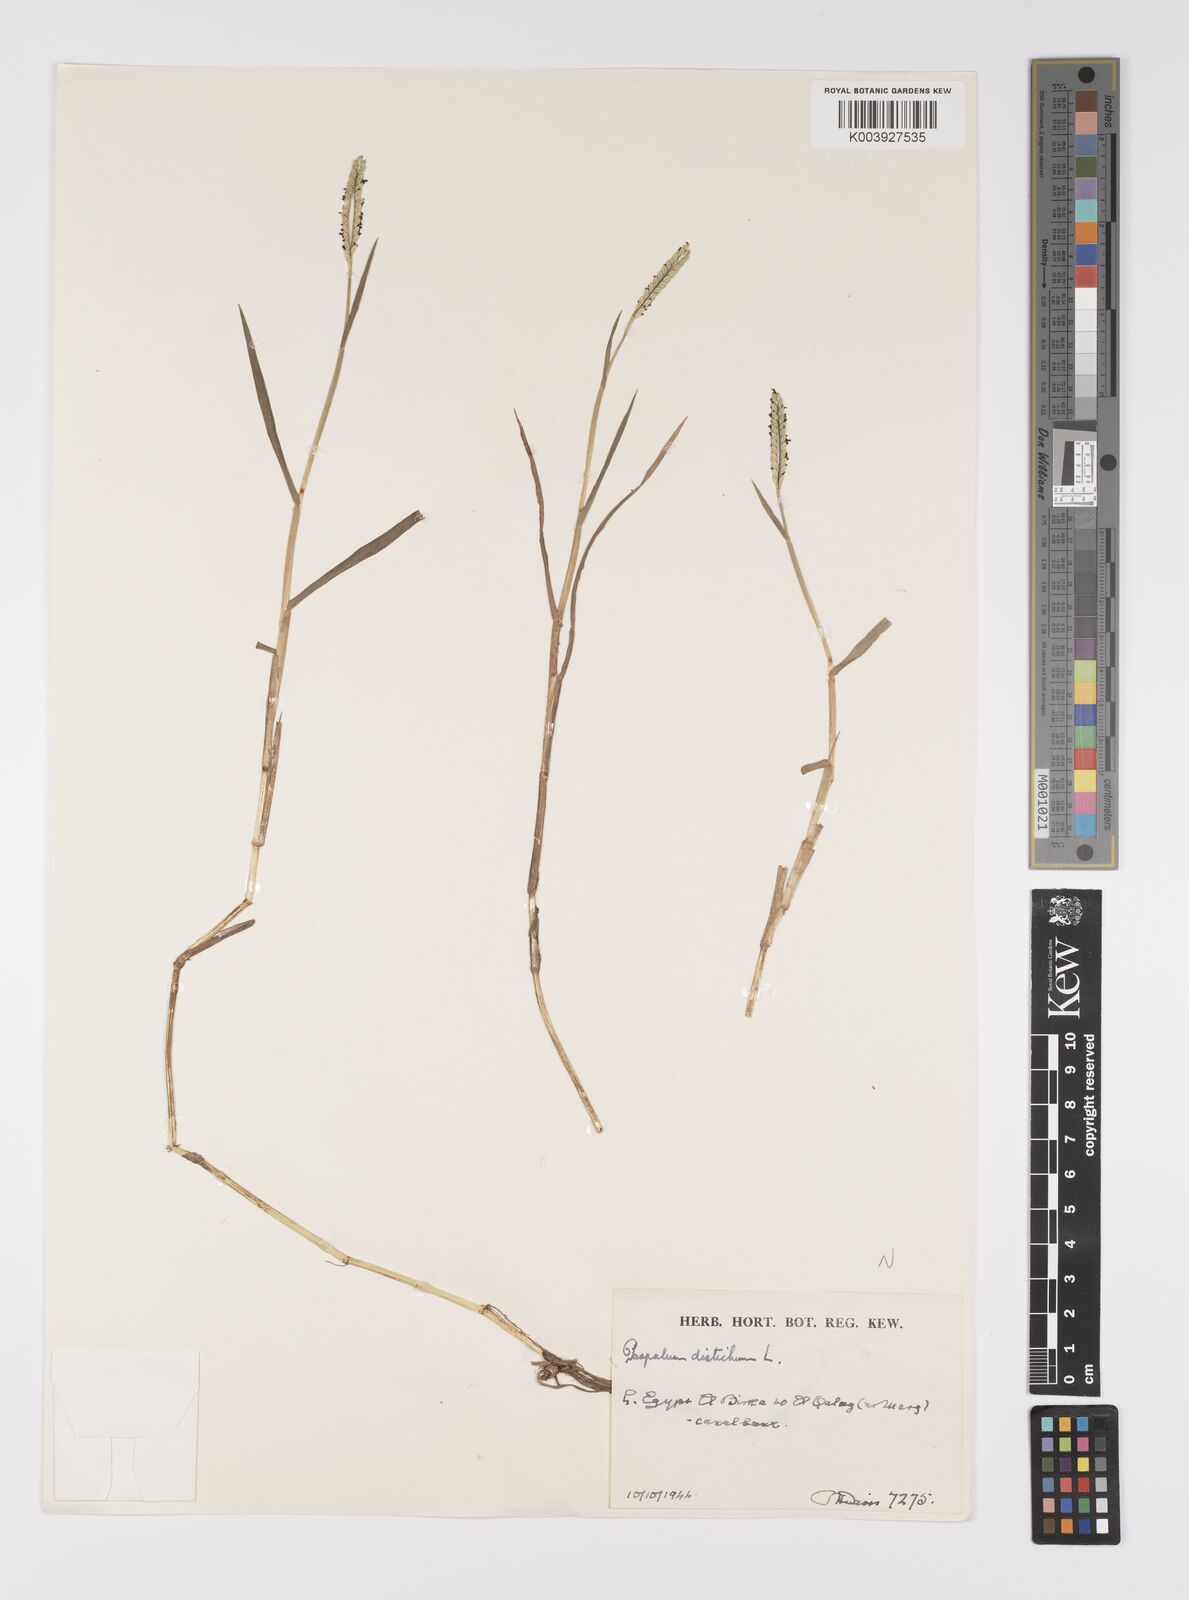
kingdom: Plantae
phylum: Tracheophyta
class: Liliopsida
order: Poales
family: Poaceae
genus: Paspalum
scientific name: Paspalum distichum
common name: Knotgrass
